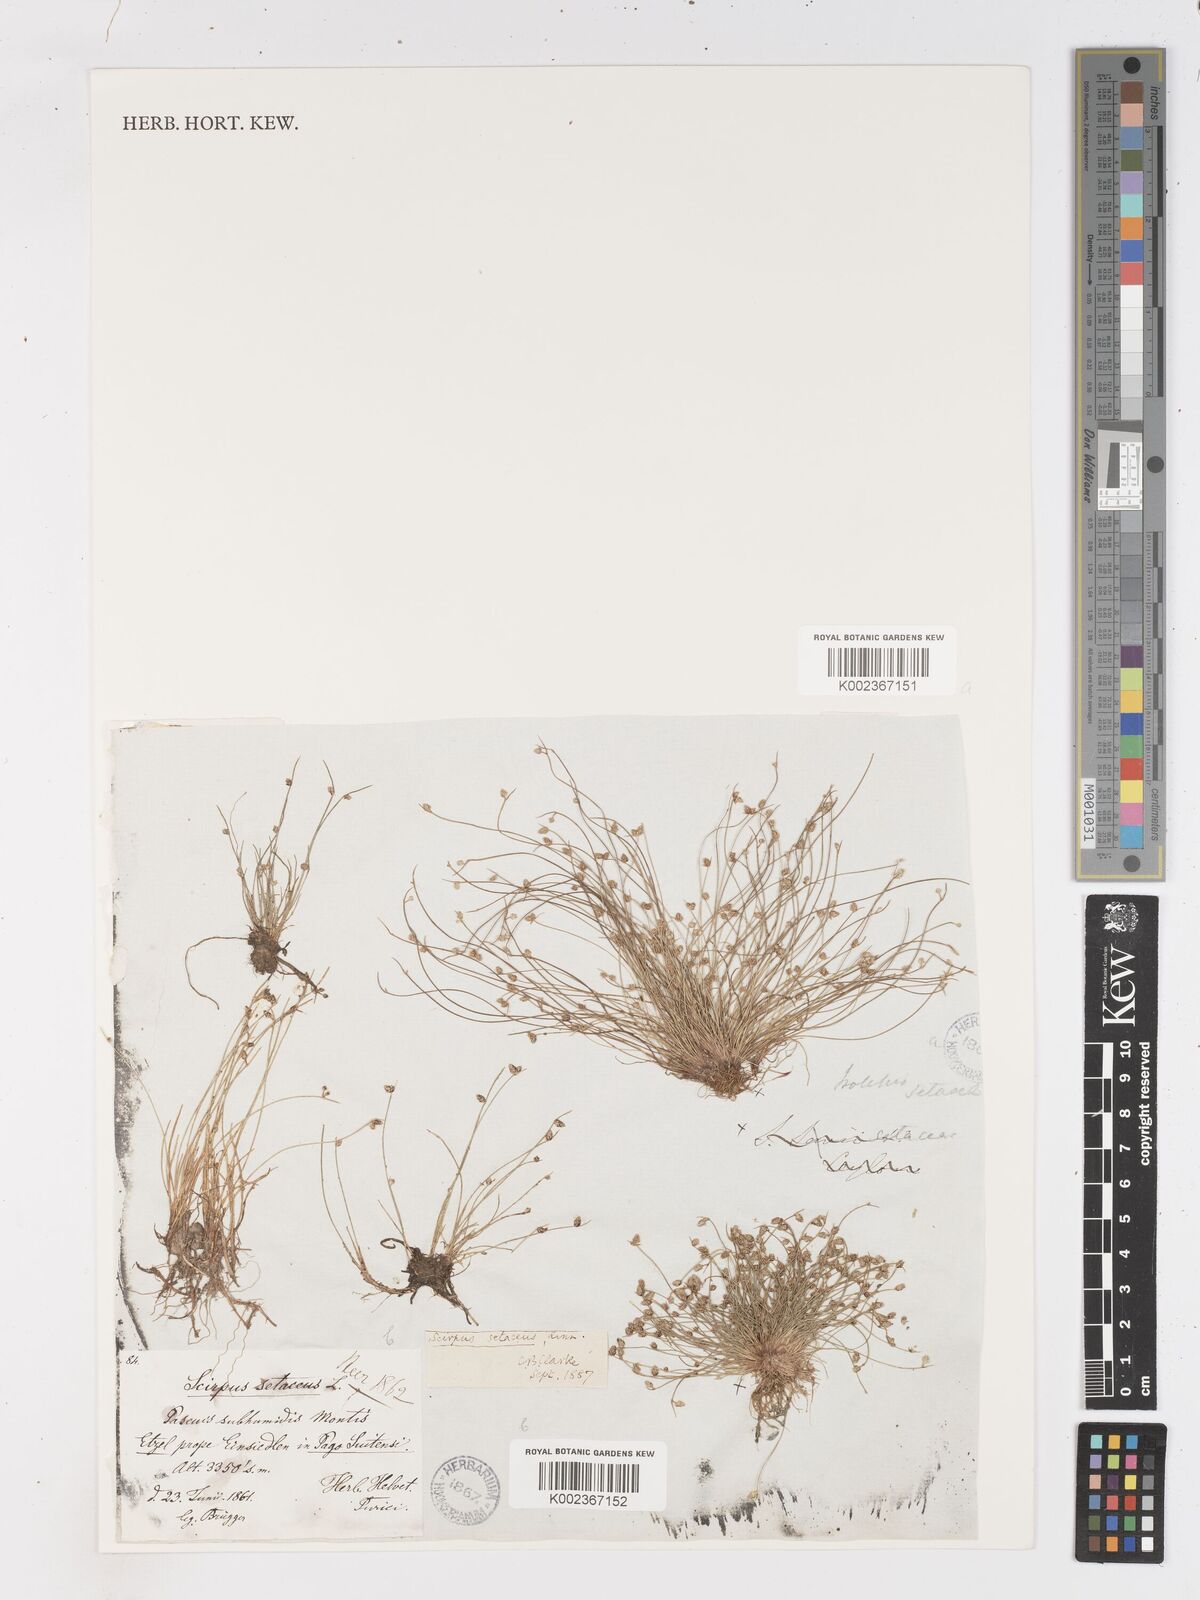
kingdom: Plantae
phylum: Tracheophyta
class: Liliopsida
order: Poales
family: Cyperaceae
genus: Isolepis
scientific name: Isolepis setacea
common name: Bristle club-rush
